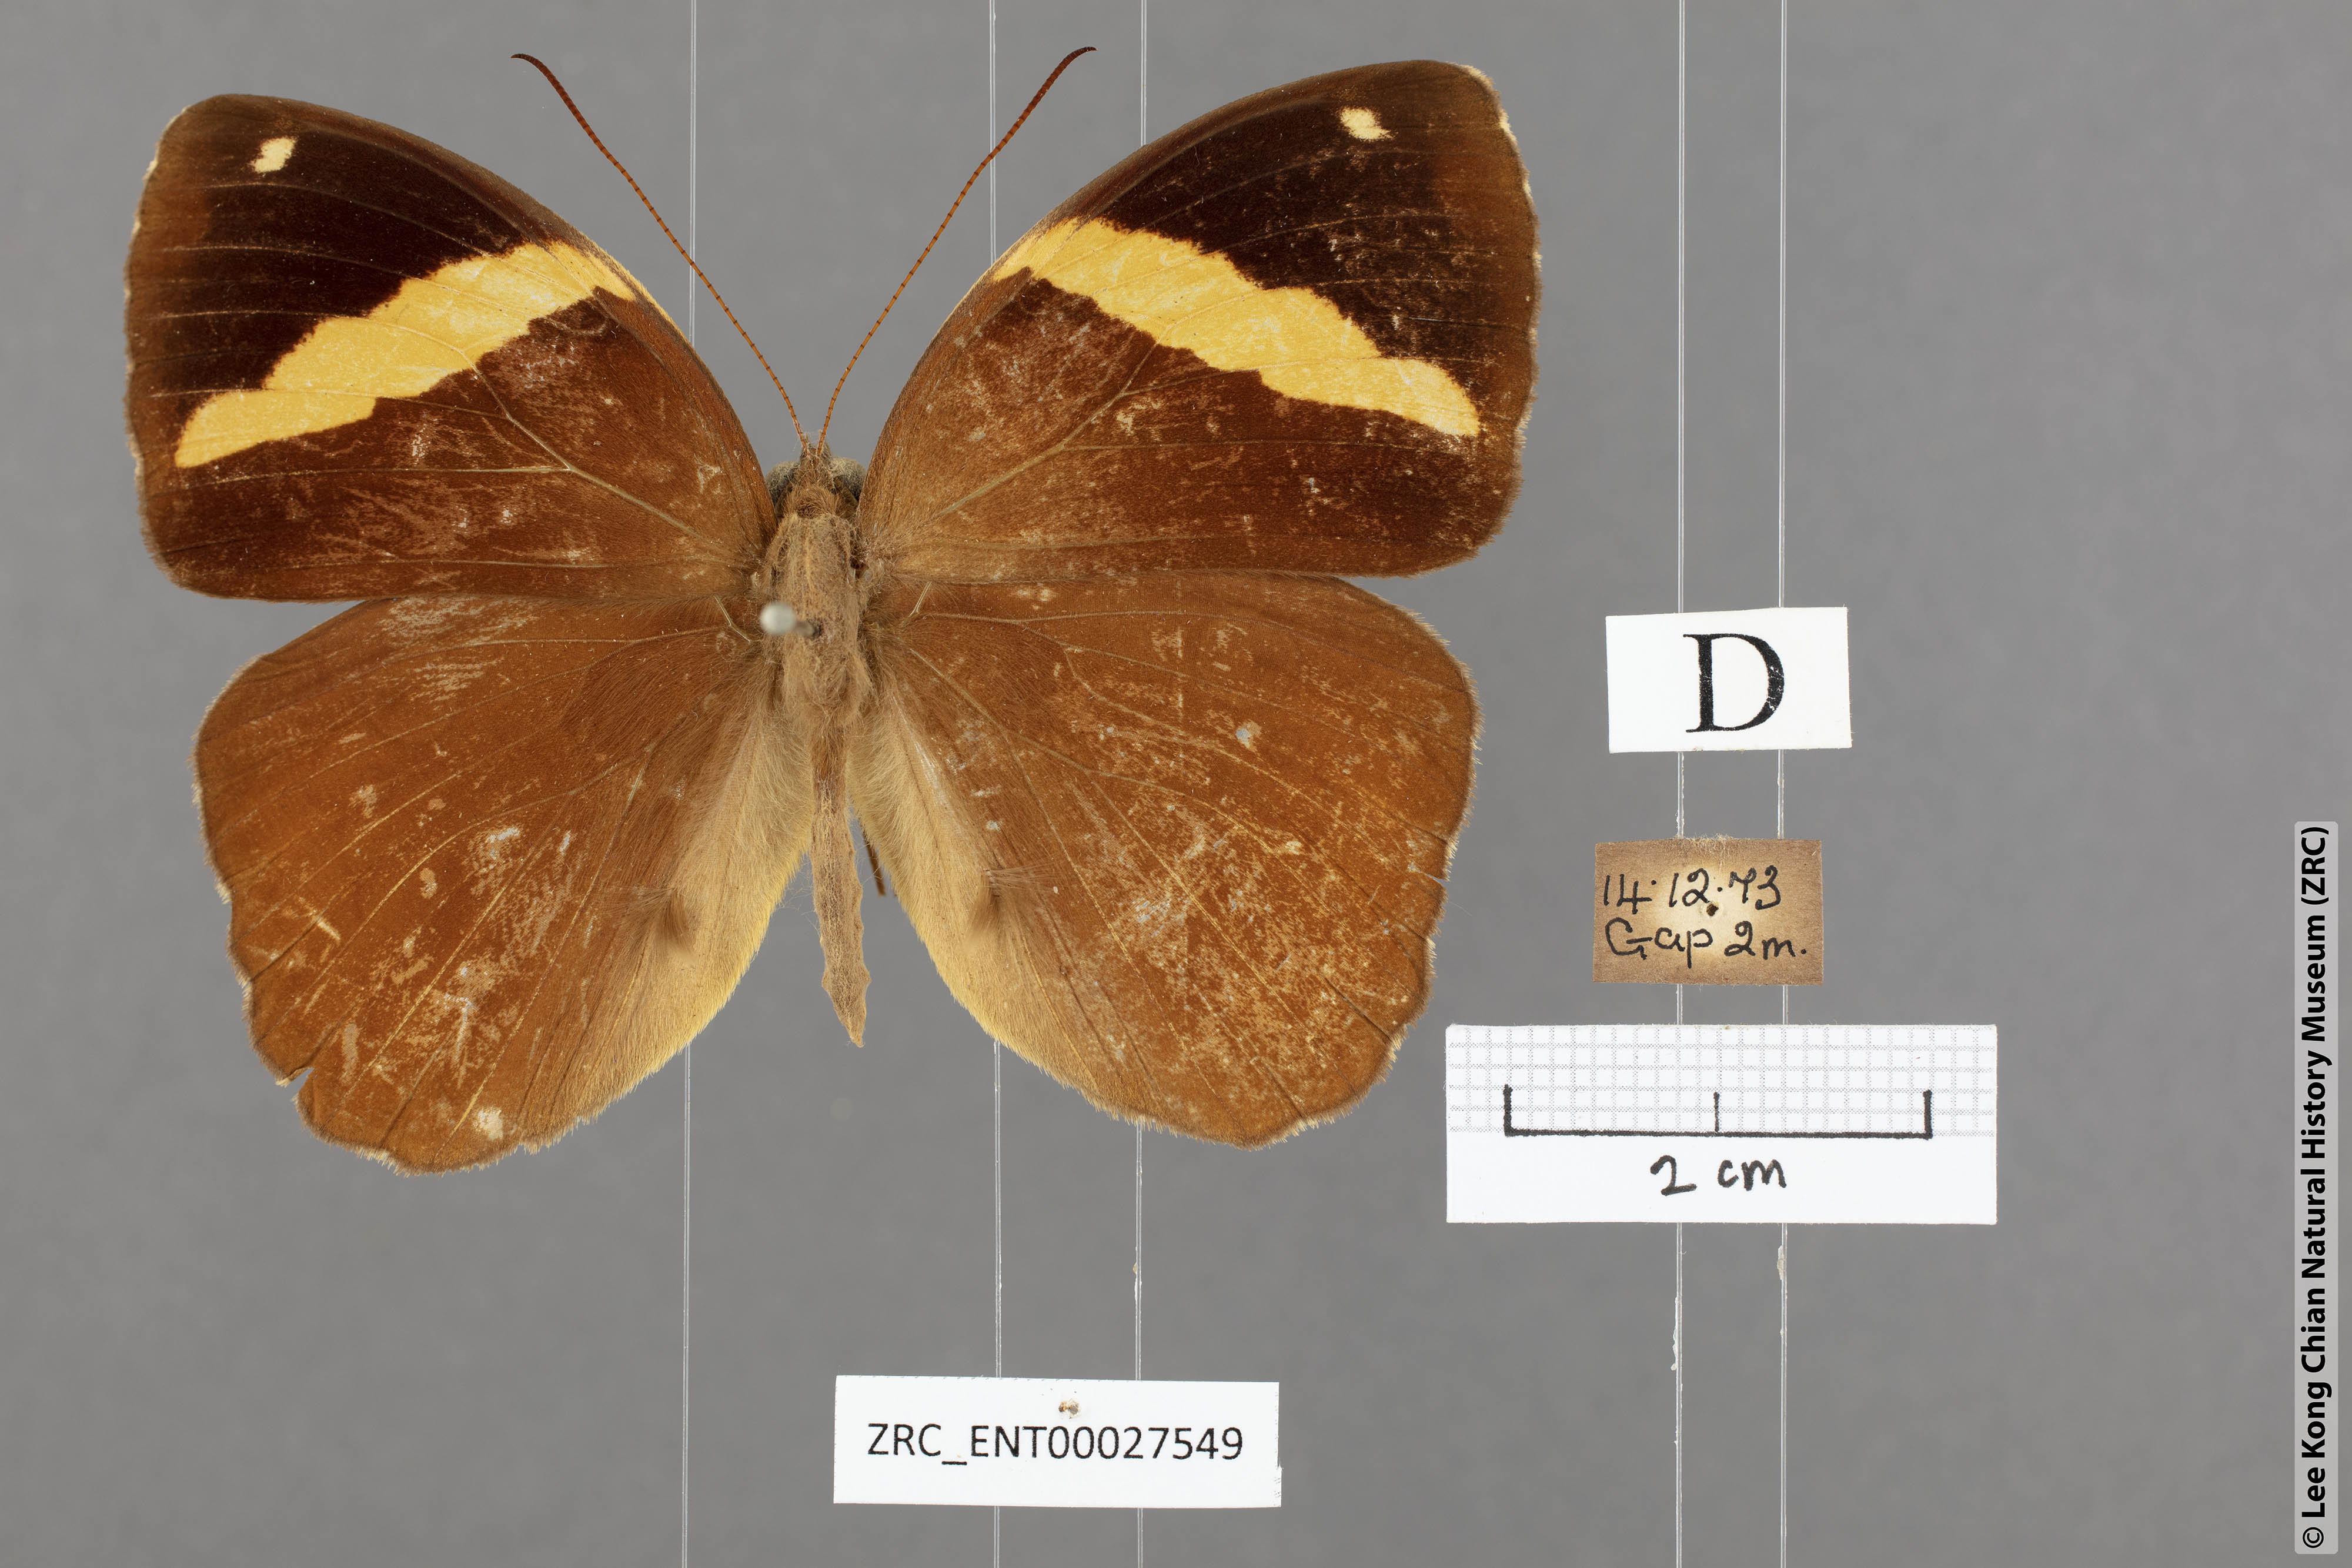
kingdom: Animalia
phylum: Arthropoda
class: Insecta
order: Lepidoptera
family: Nymphalidae
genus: Xanthotaenia
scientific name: Xanthotaenia busiris
